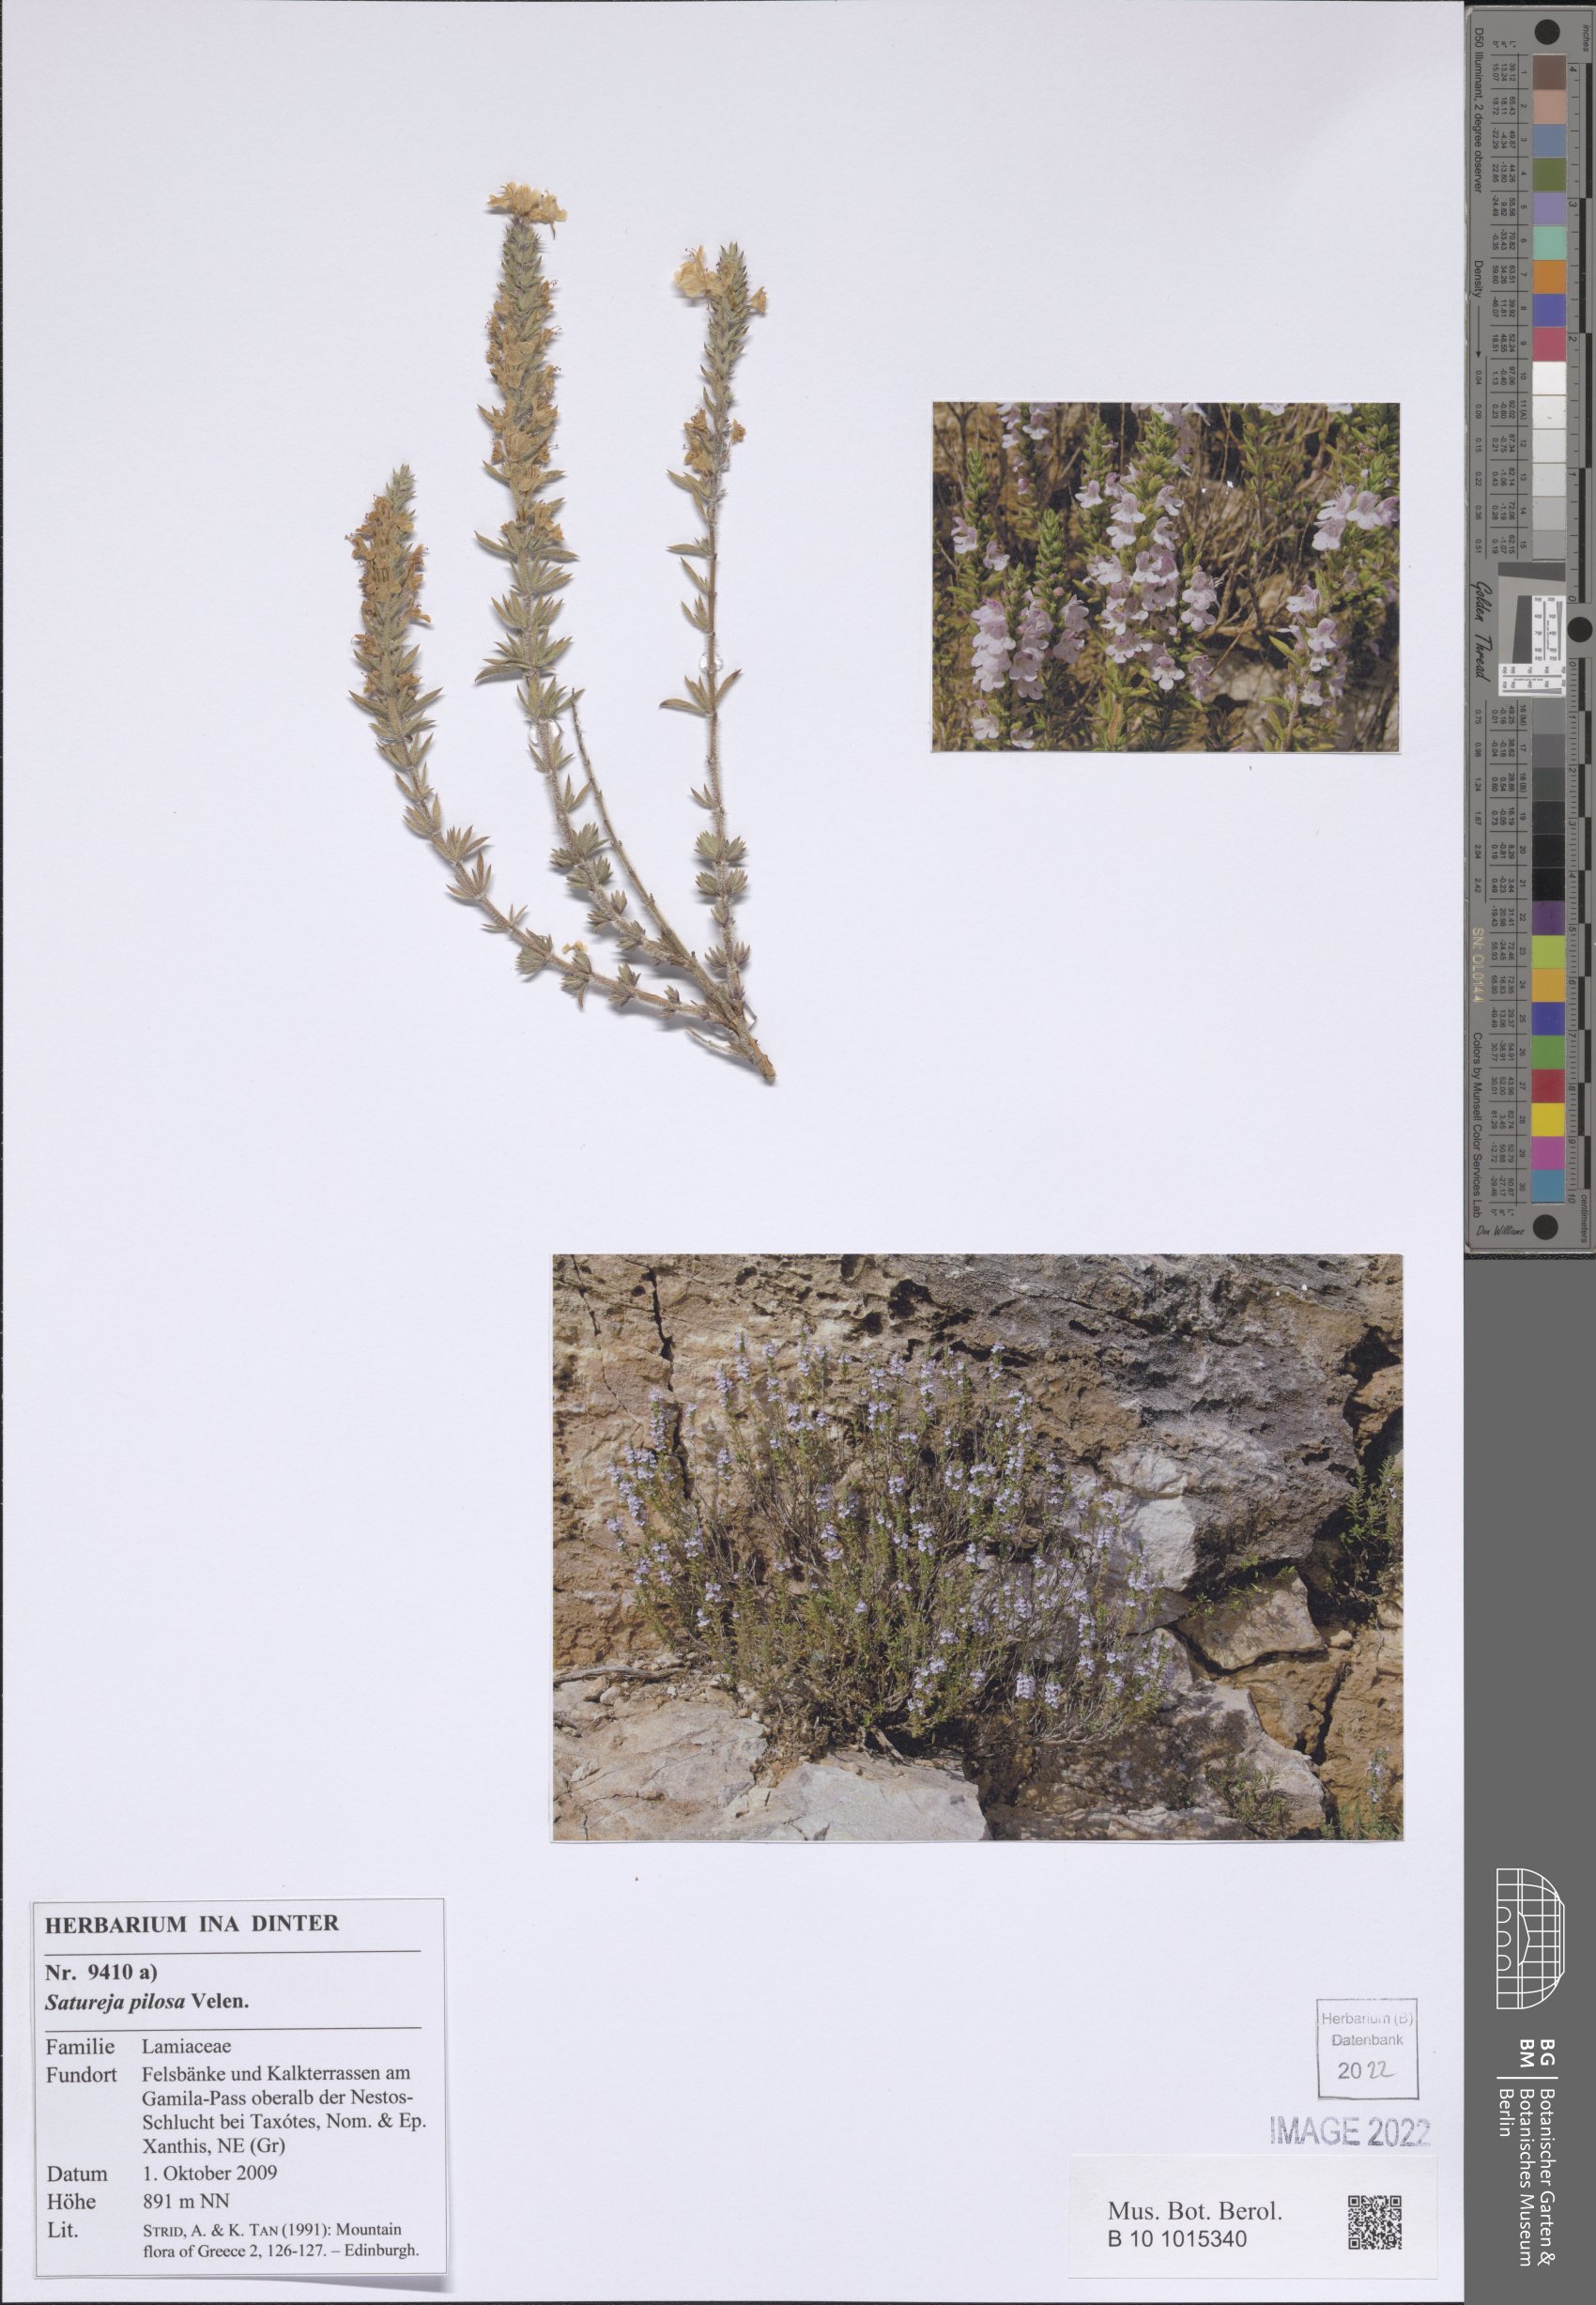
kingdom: Plantae
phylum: Tracheophyta
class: Magnoliopsida
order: Lamiales
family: Lamiaceae
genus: Satureja
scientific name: Satureja pilosa
